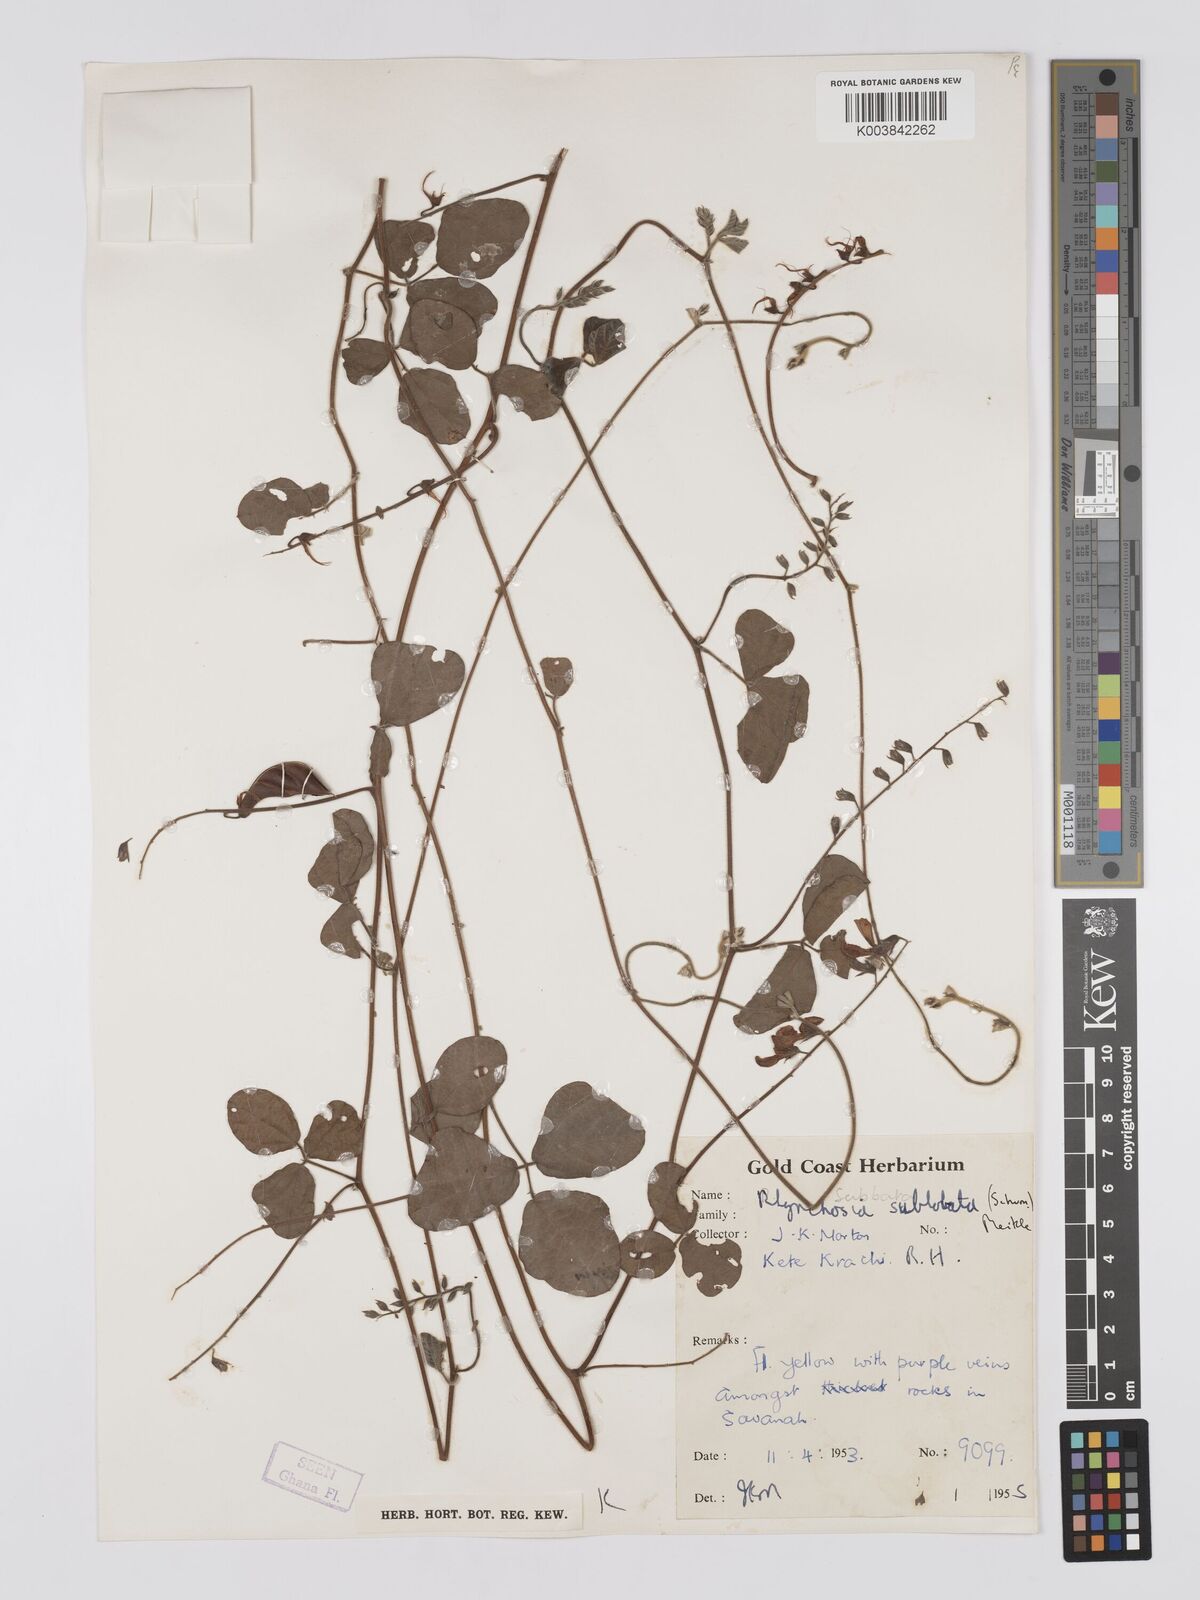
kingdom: Plantae
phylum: Tracheophyta
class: Magnoliopsida
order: Fabales
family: Fabaceae
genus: Rhynchosia
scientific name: Rhynchosia sublobata
